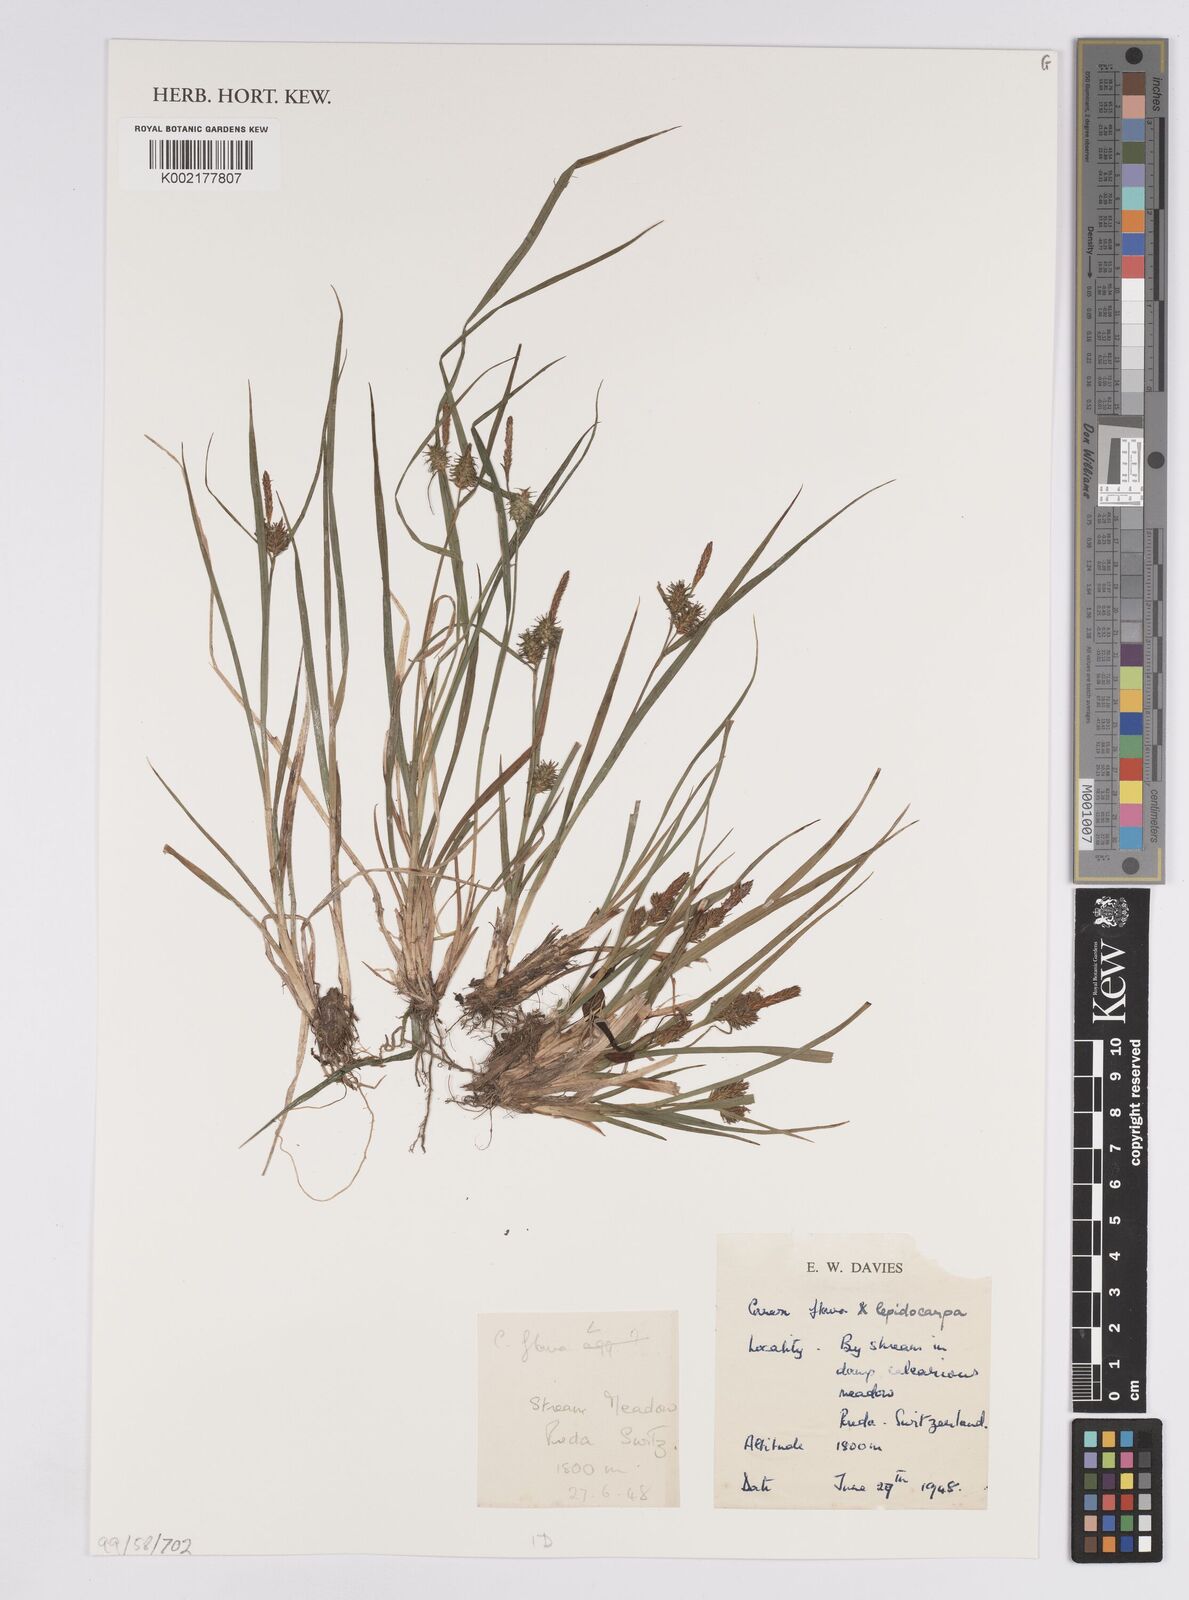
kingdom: Plantae
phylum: Tracheophyta
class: Liliopsida
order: Poales
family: Cyperaceae
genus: Carex
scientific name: Carex flava
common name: Large yellow-sedge
